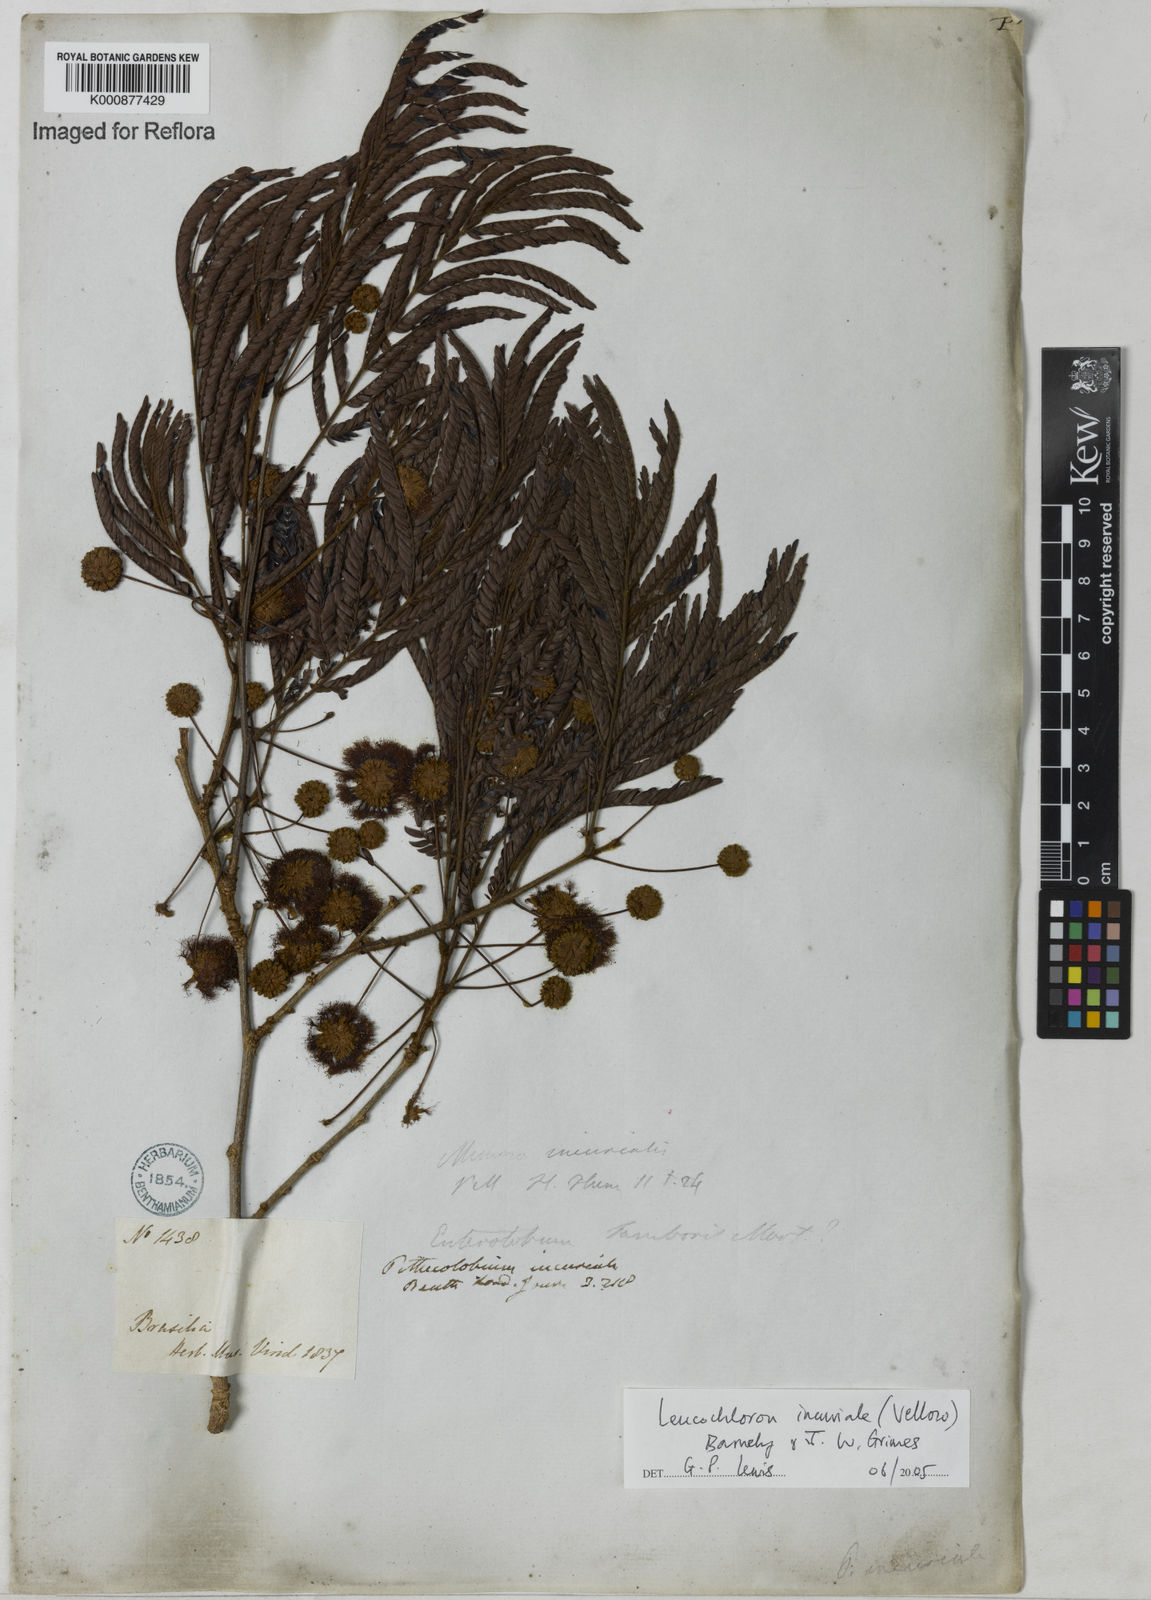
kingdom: Plantae
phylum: Tracheophyta
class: Magnoliopsida
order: Fabales
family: Fabaceae
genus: Leucochloron
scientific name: Leucochloron incuriale
